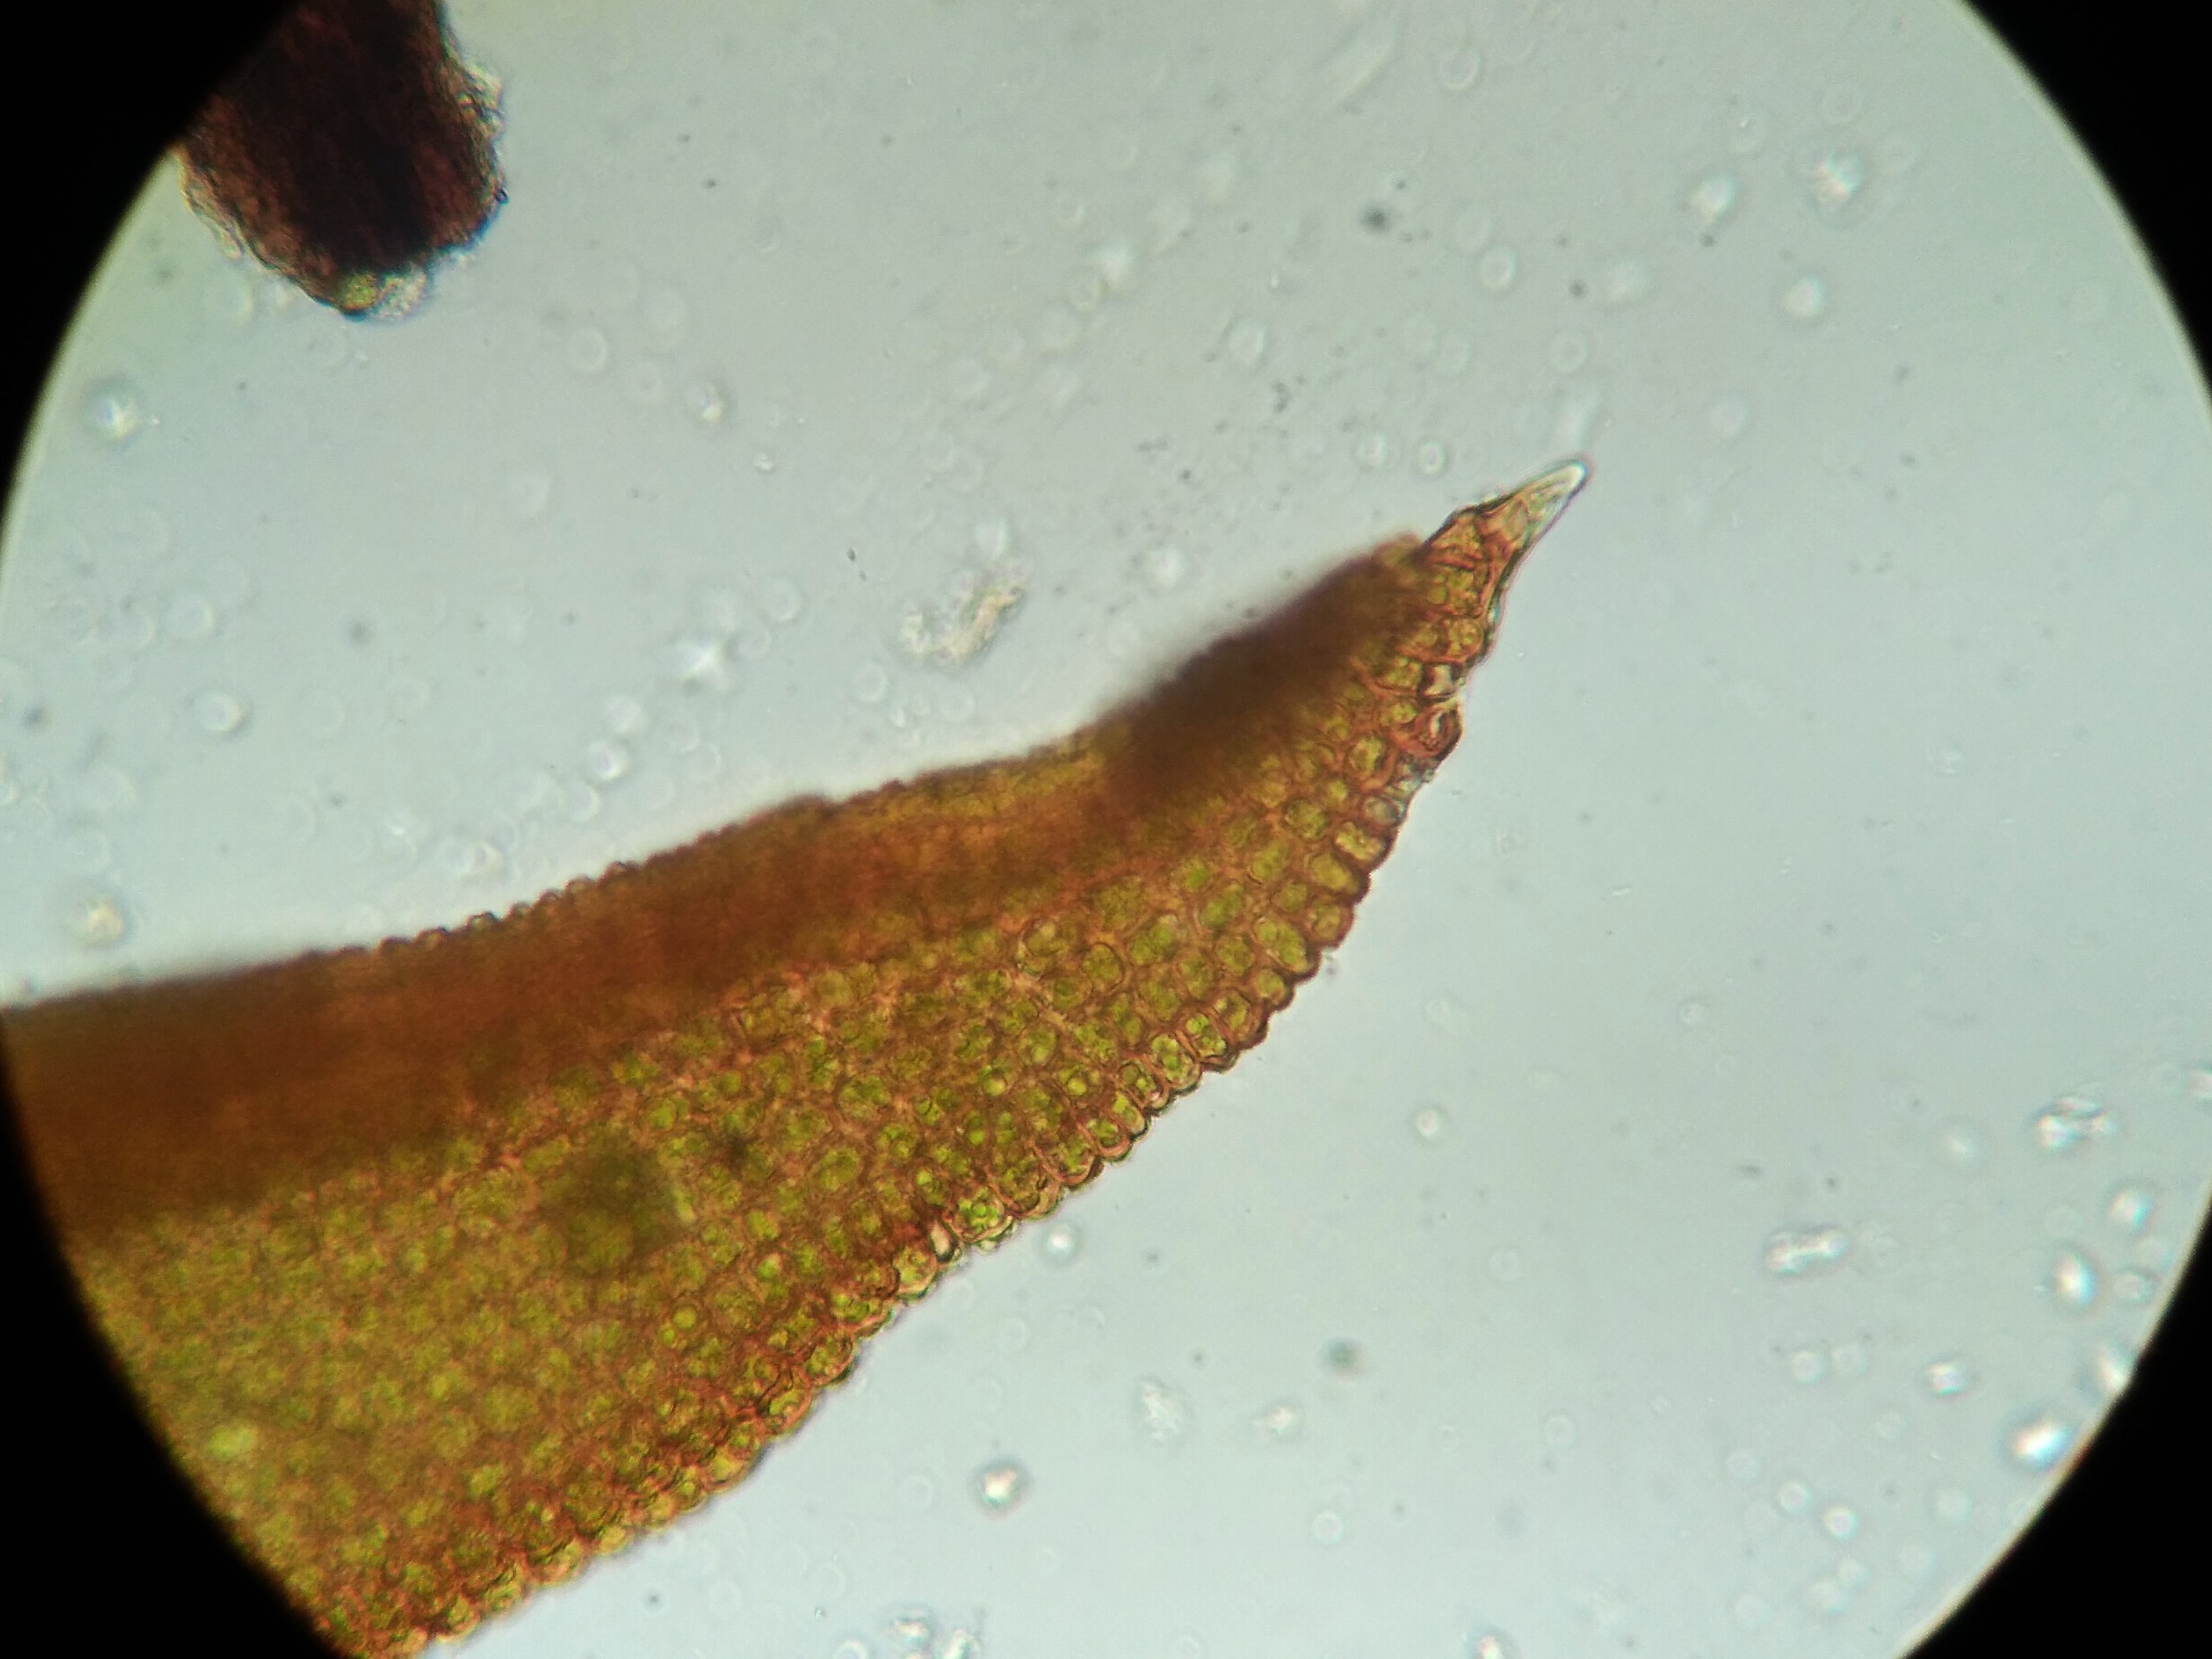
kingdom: Plantae
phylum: Bryophyta
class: Bryopsida
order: Pottiales
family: Pottiaceae
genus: Bryoerythrophyllum
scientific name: Bryoerythrophyllum recurvirostrum
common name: Rød gammelblad
